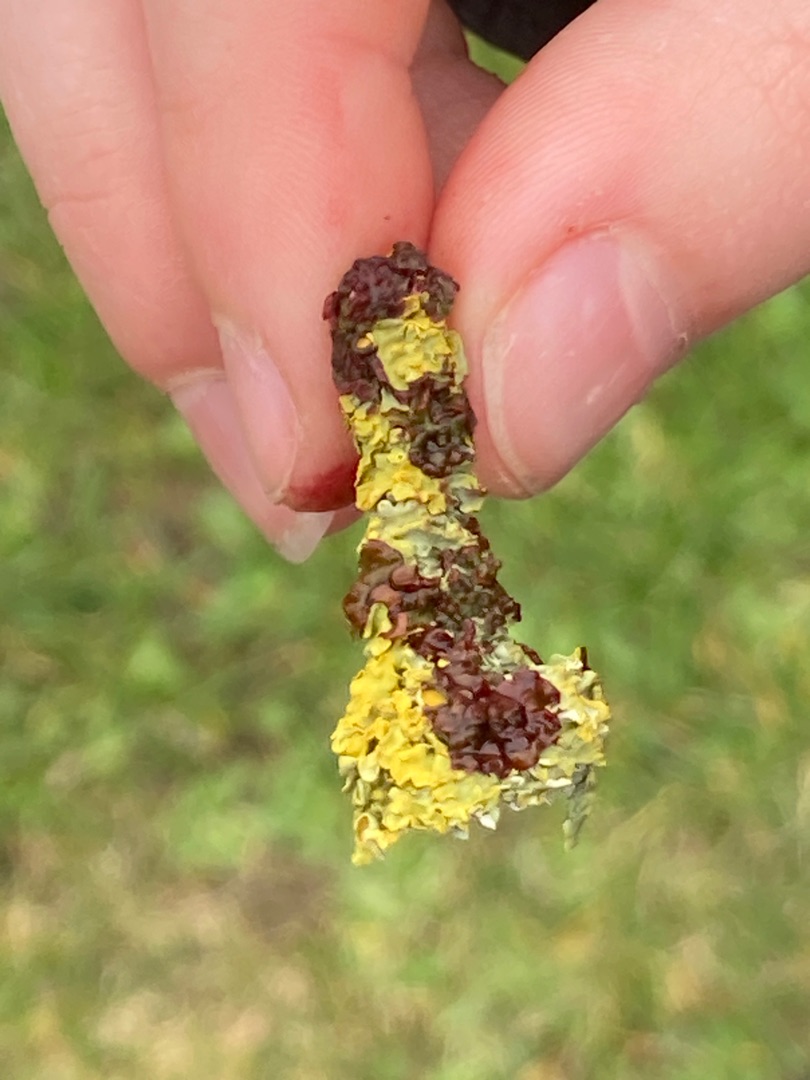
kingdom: Fungi
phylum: Ascomycota
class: Lecanoromycetes
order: Teloschistales
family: Teloschistaceae
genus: Xanthoria
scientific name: Xanthoria parietina
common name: Almindelig væggelav
